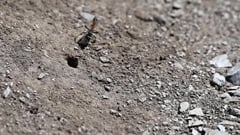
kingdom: Animalia
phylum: Arthropoda
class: Insecta
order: Hymenoptera
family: Sphecidae
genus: Prionyx
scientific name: Prionyx kirbii
